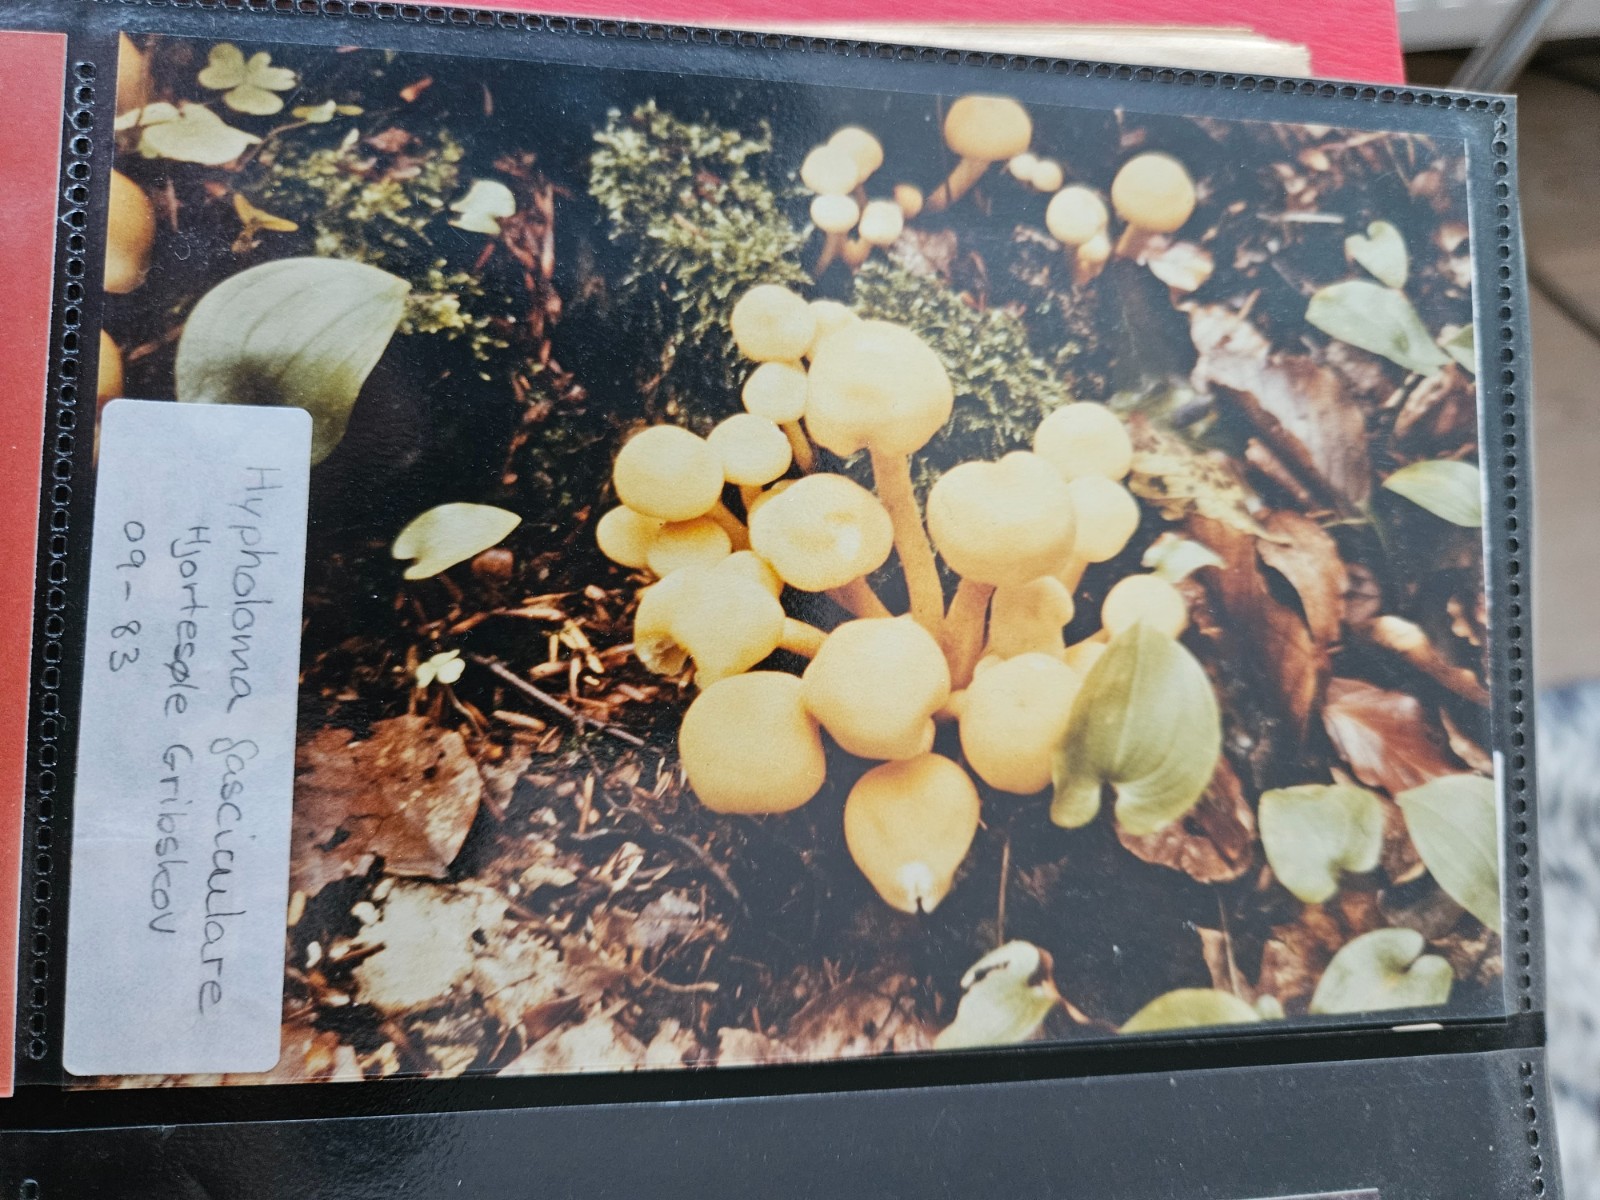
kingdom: Fungi
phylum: Basidiomycota
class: Agaricomycetes
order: Agaricales
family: Strophariaceae
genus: Hypholoma
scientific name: Hypholoma fasciculare
